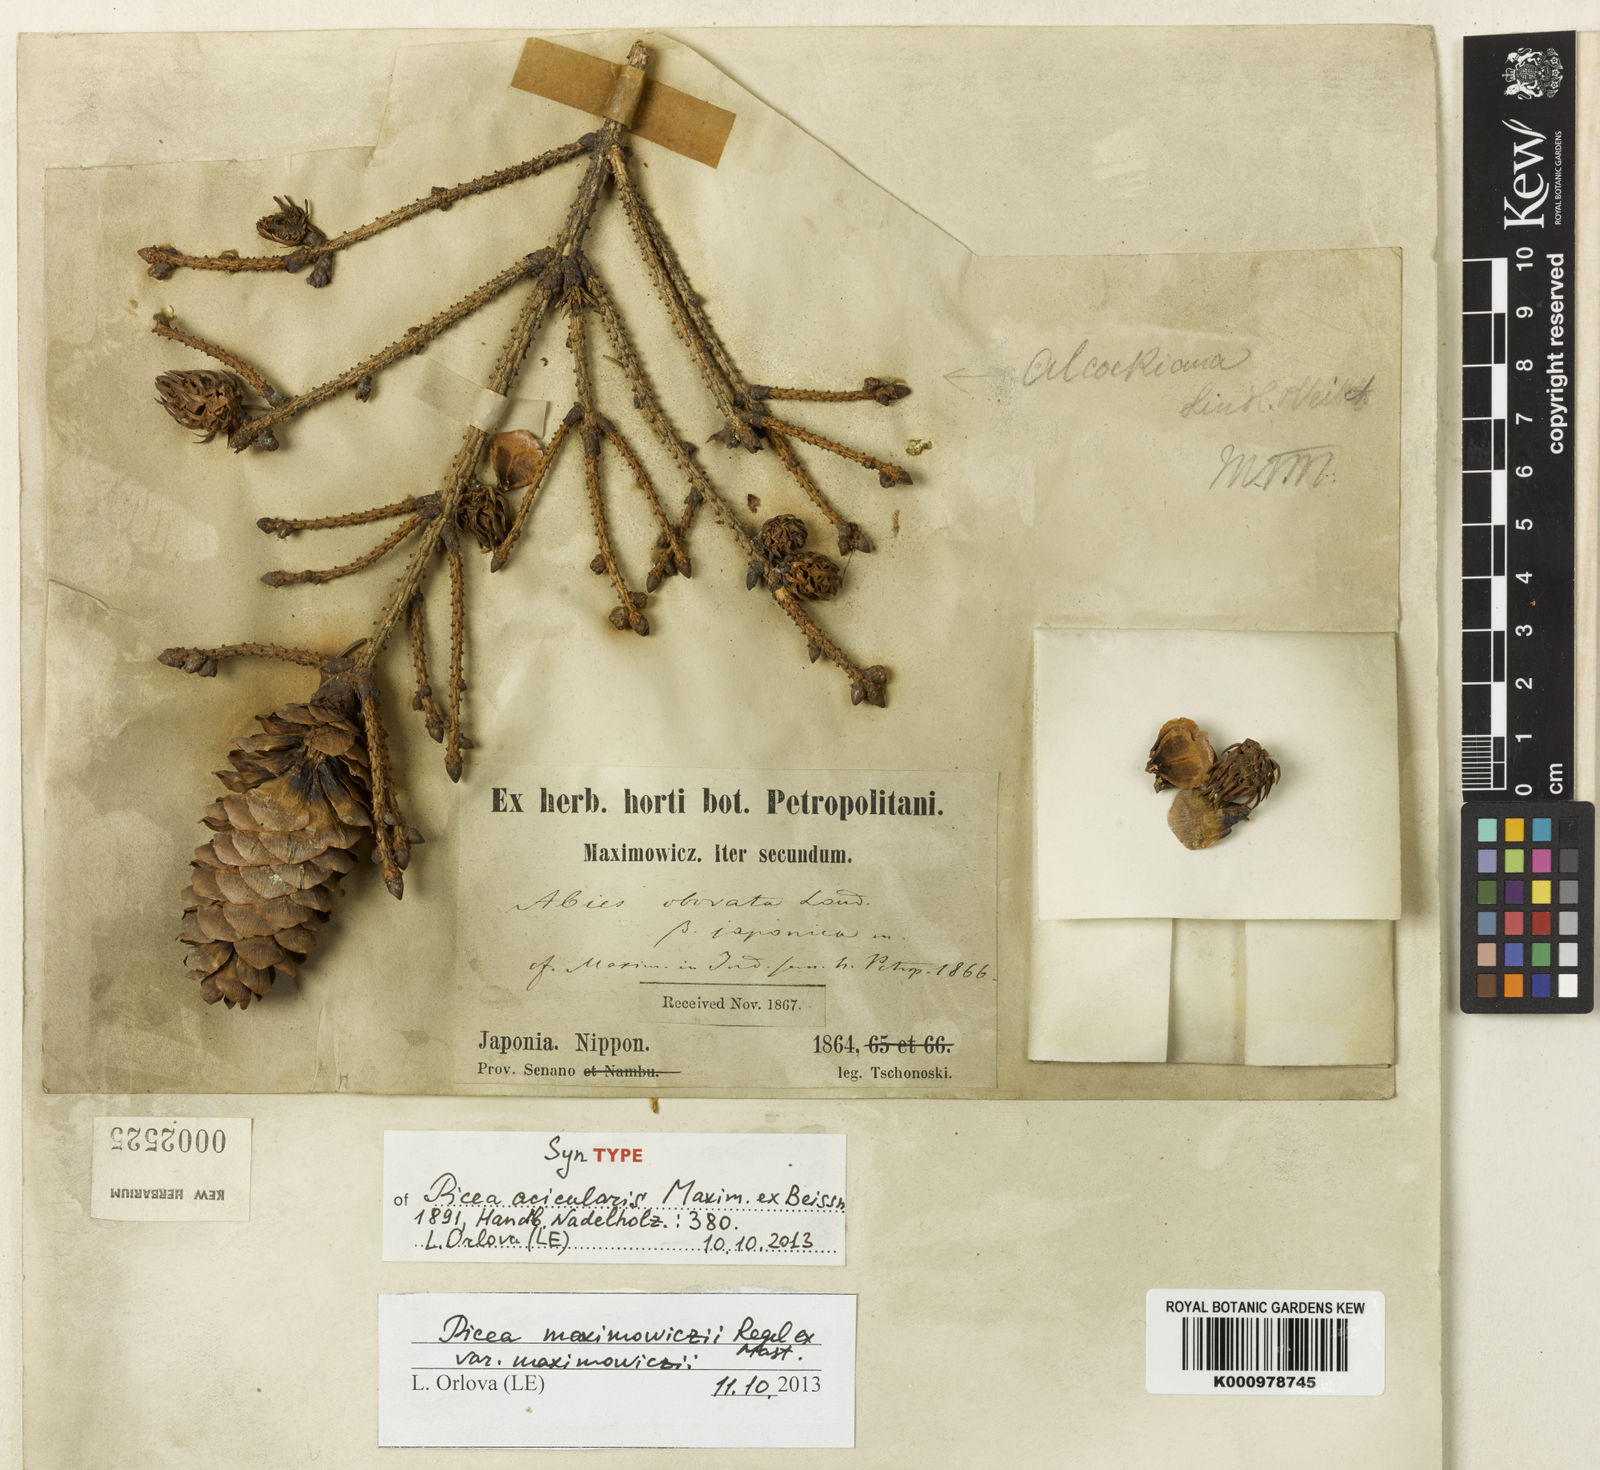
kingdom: Plantae
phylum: Tracheophyta
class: Pinopsida
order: Pinales
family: Pinaceae
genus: Picea
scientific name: Picea maximowiczii
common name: Japanese bush spruce
